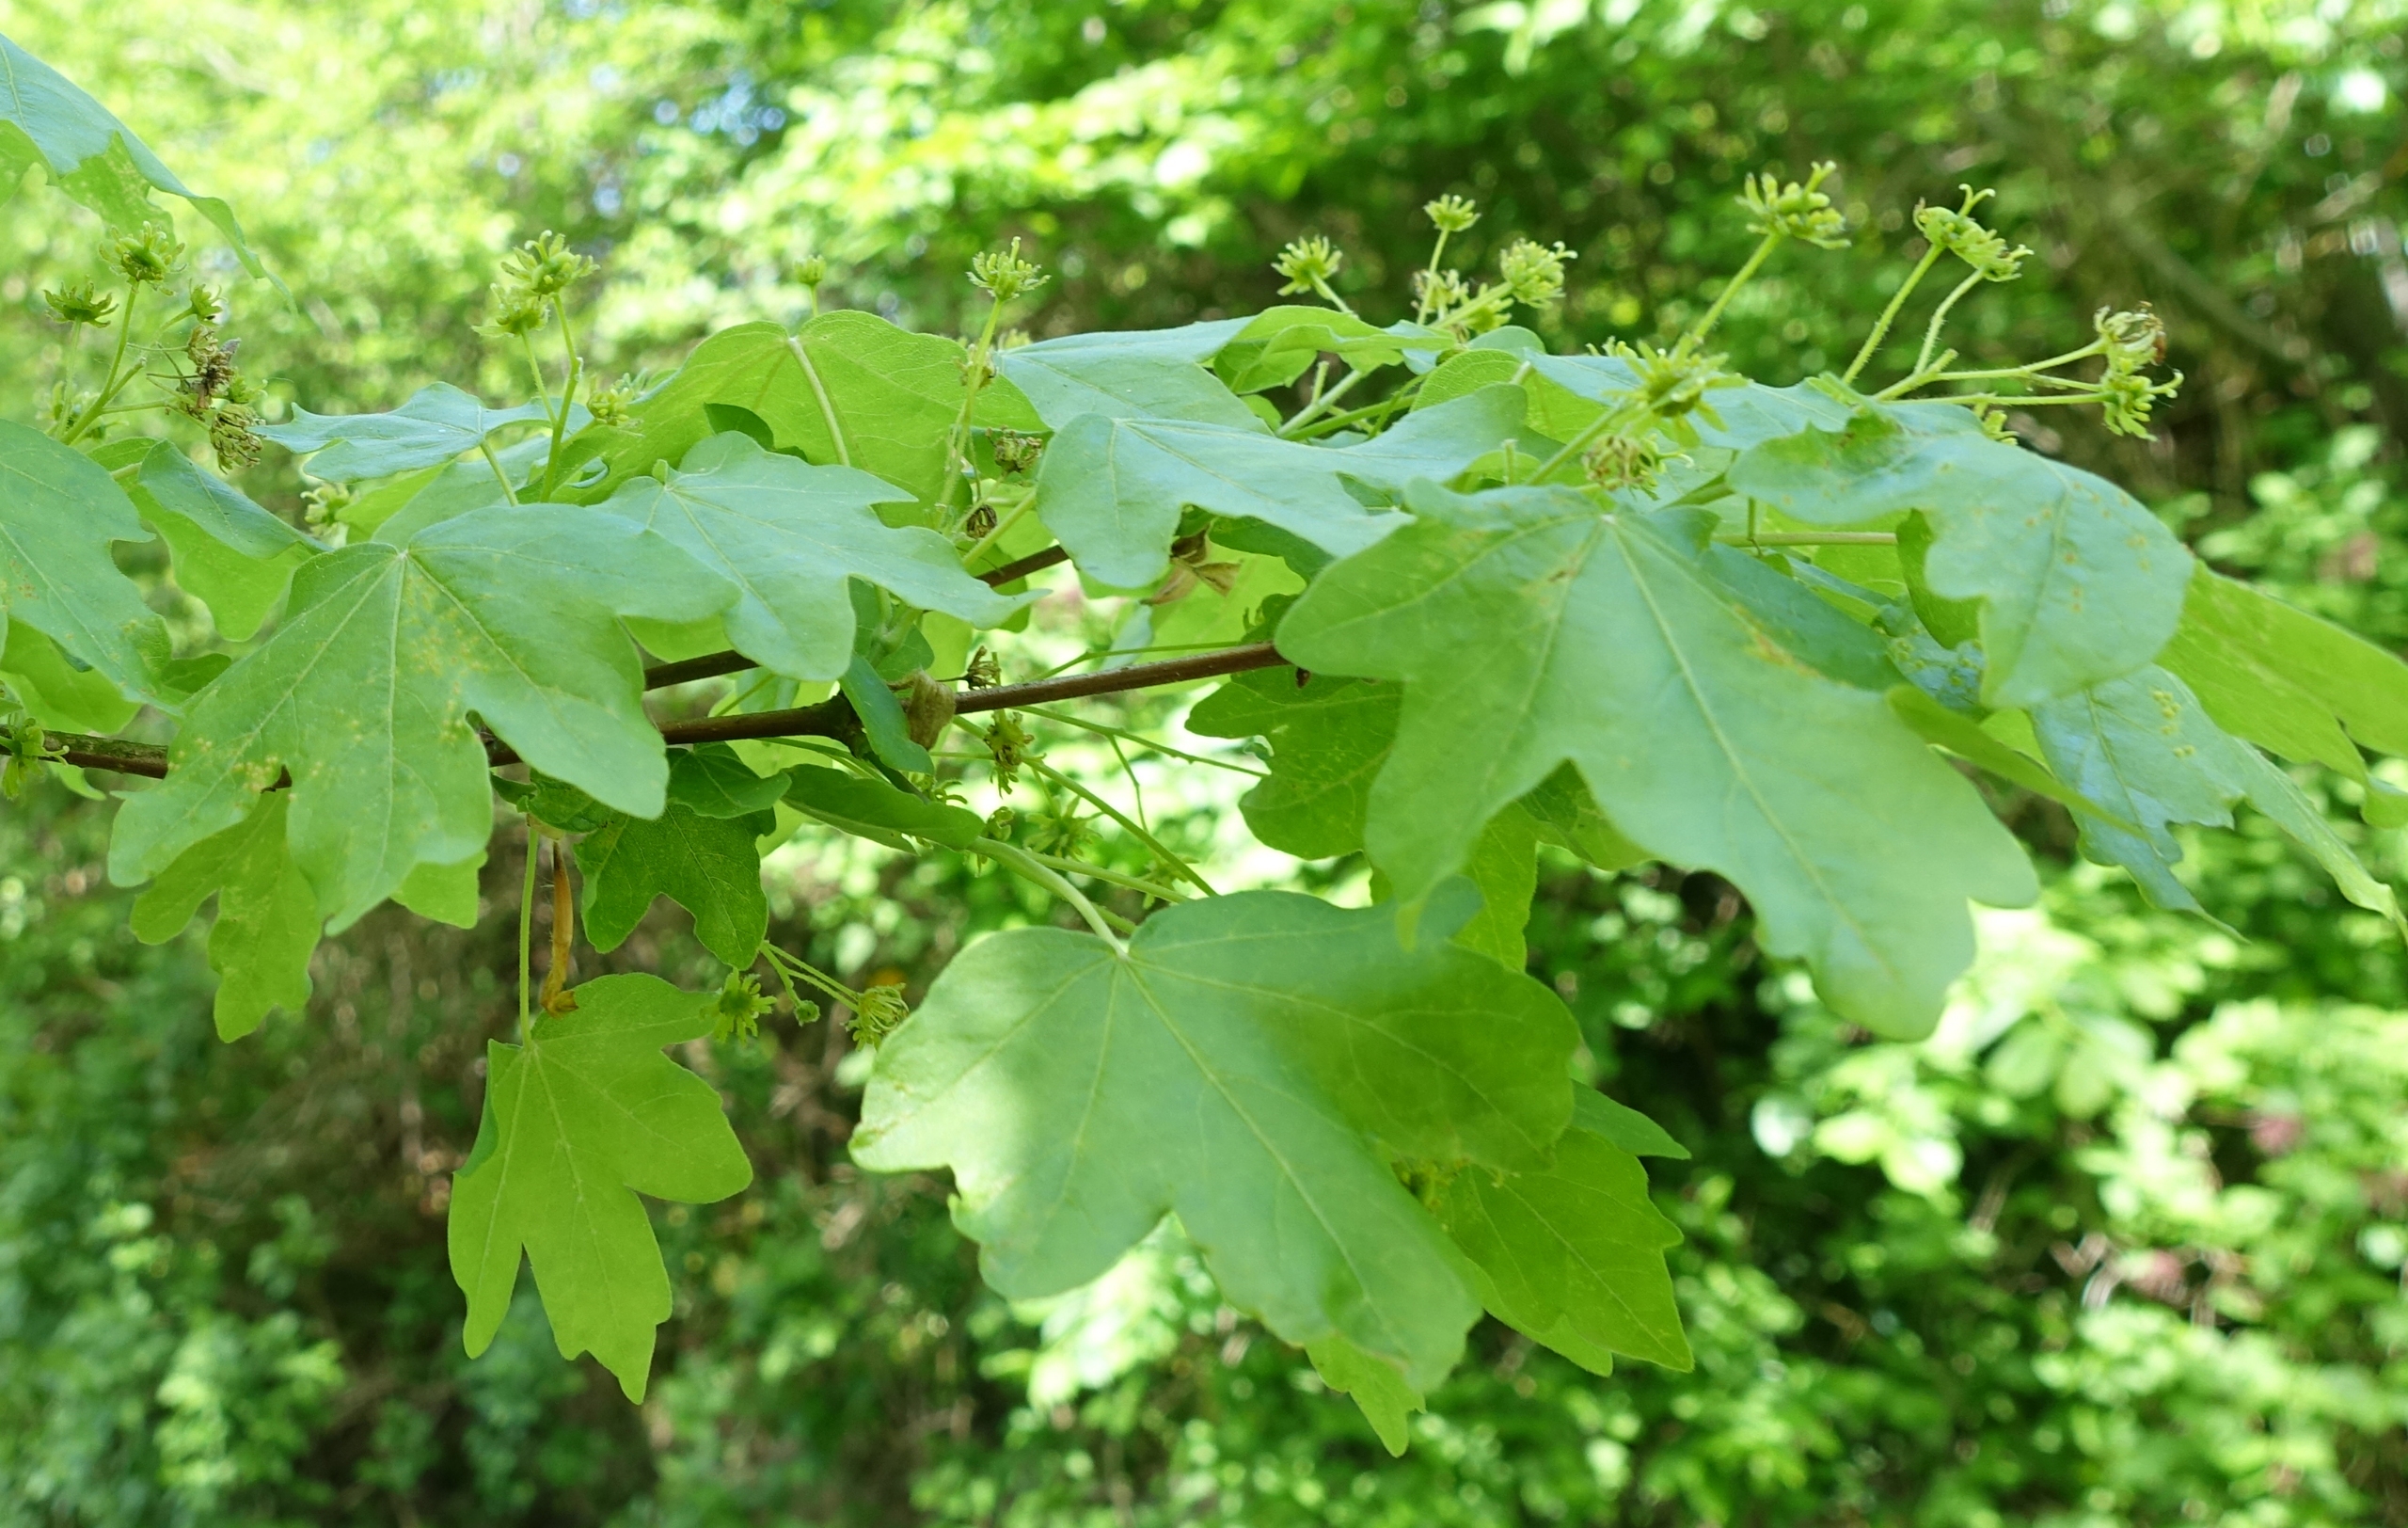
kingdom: Plantae
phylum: Tracheophyta
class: Magnoliopsida
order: Sapindales
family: Sapindaceae
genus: Acer
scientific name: Acer campestre
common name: Navr
